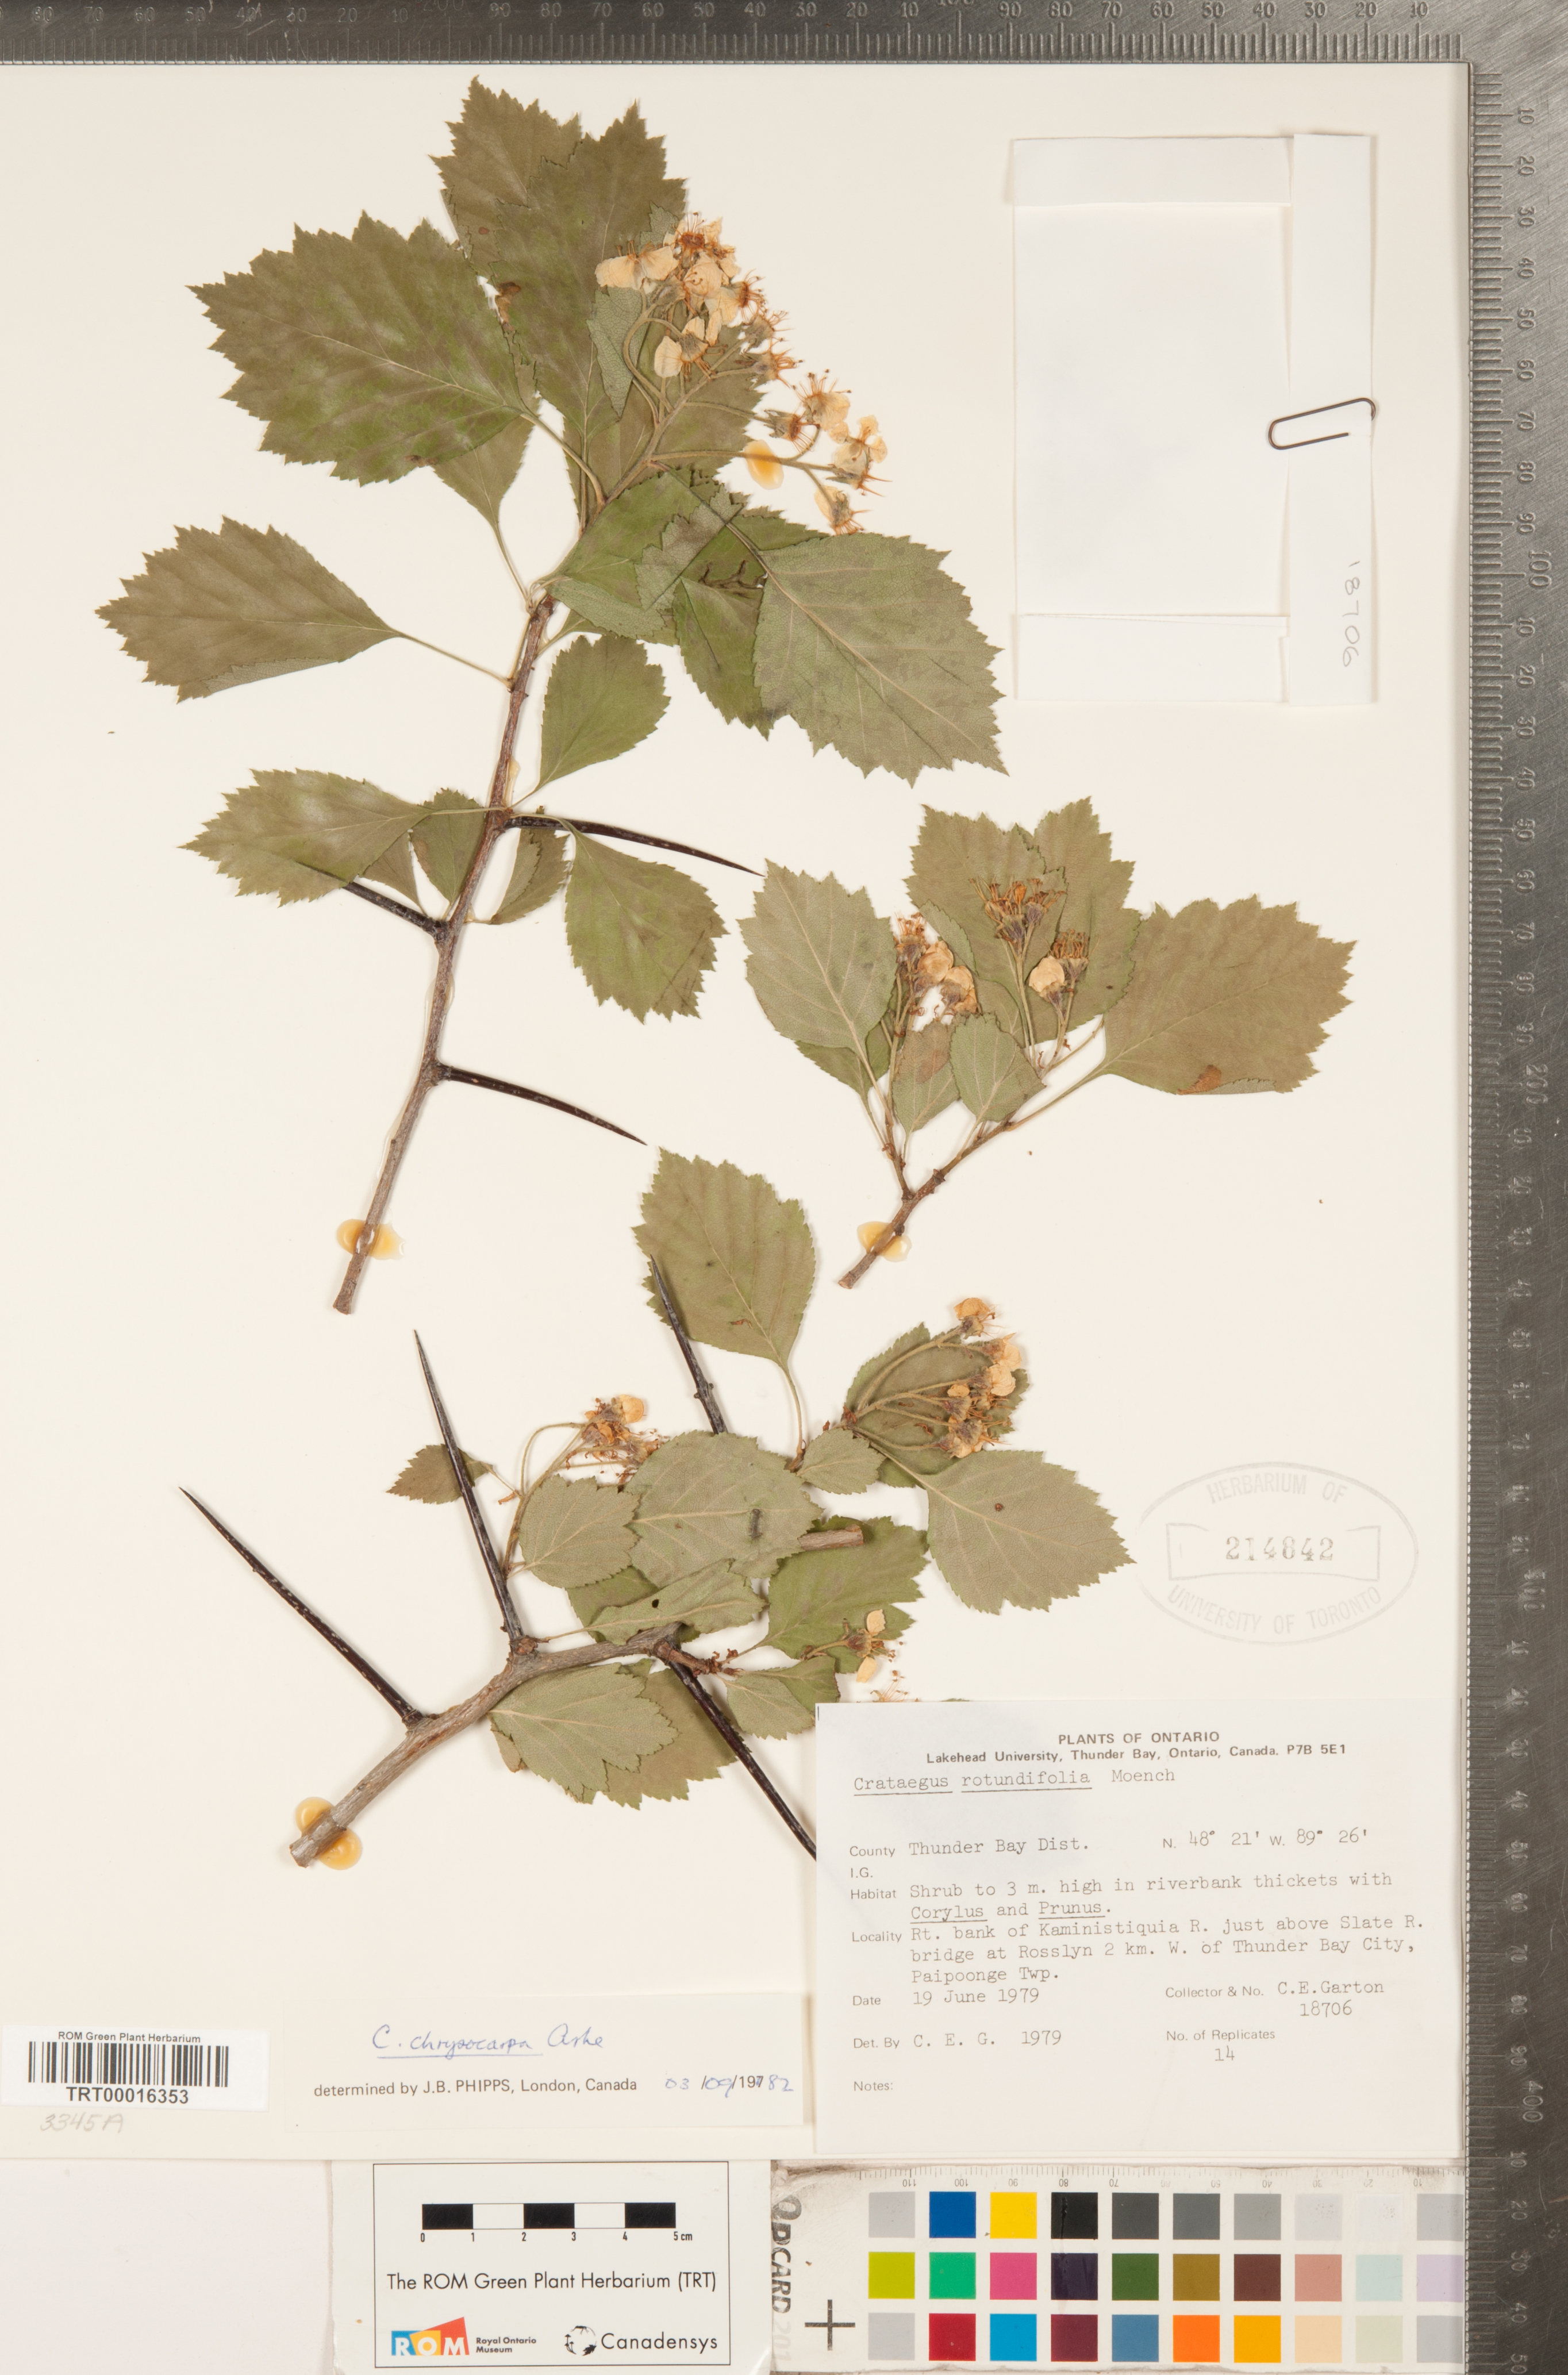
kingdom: Plantae
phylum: Tracheophyta
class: Magnoliopsida
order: Rosales
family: Rosaceae
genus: Crataegus
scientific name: Crataegus chrysocarpa
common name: Fire-berry hawthorn
